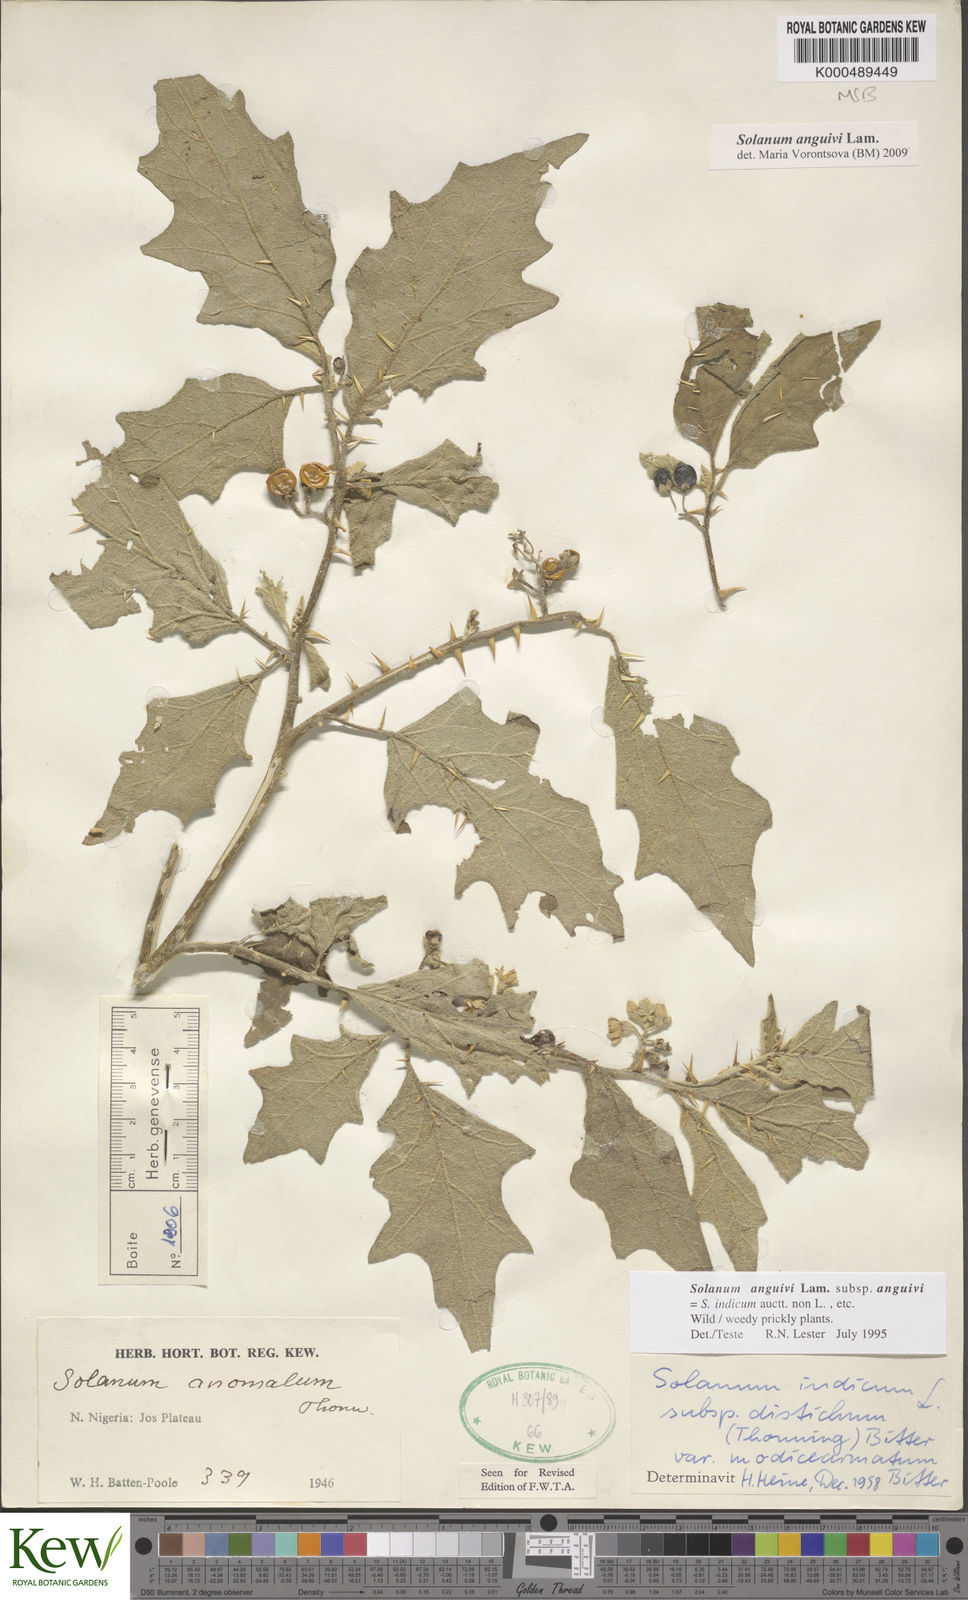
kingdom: Plantae
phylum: Tracheophyta
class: Magnoliopsida
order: Solanales
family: Solanaceae
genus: Solanum
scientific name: Solanum anguivi
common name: Forest bitterberry
